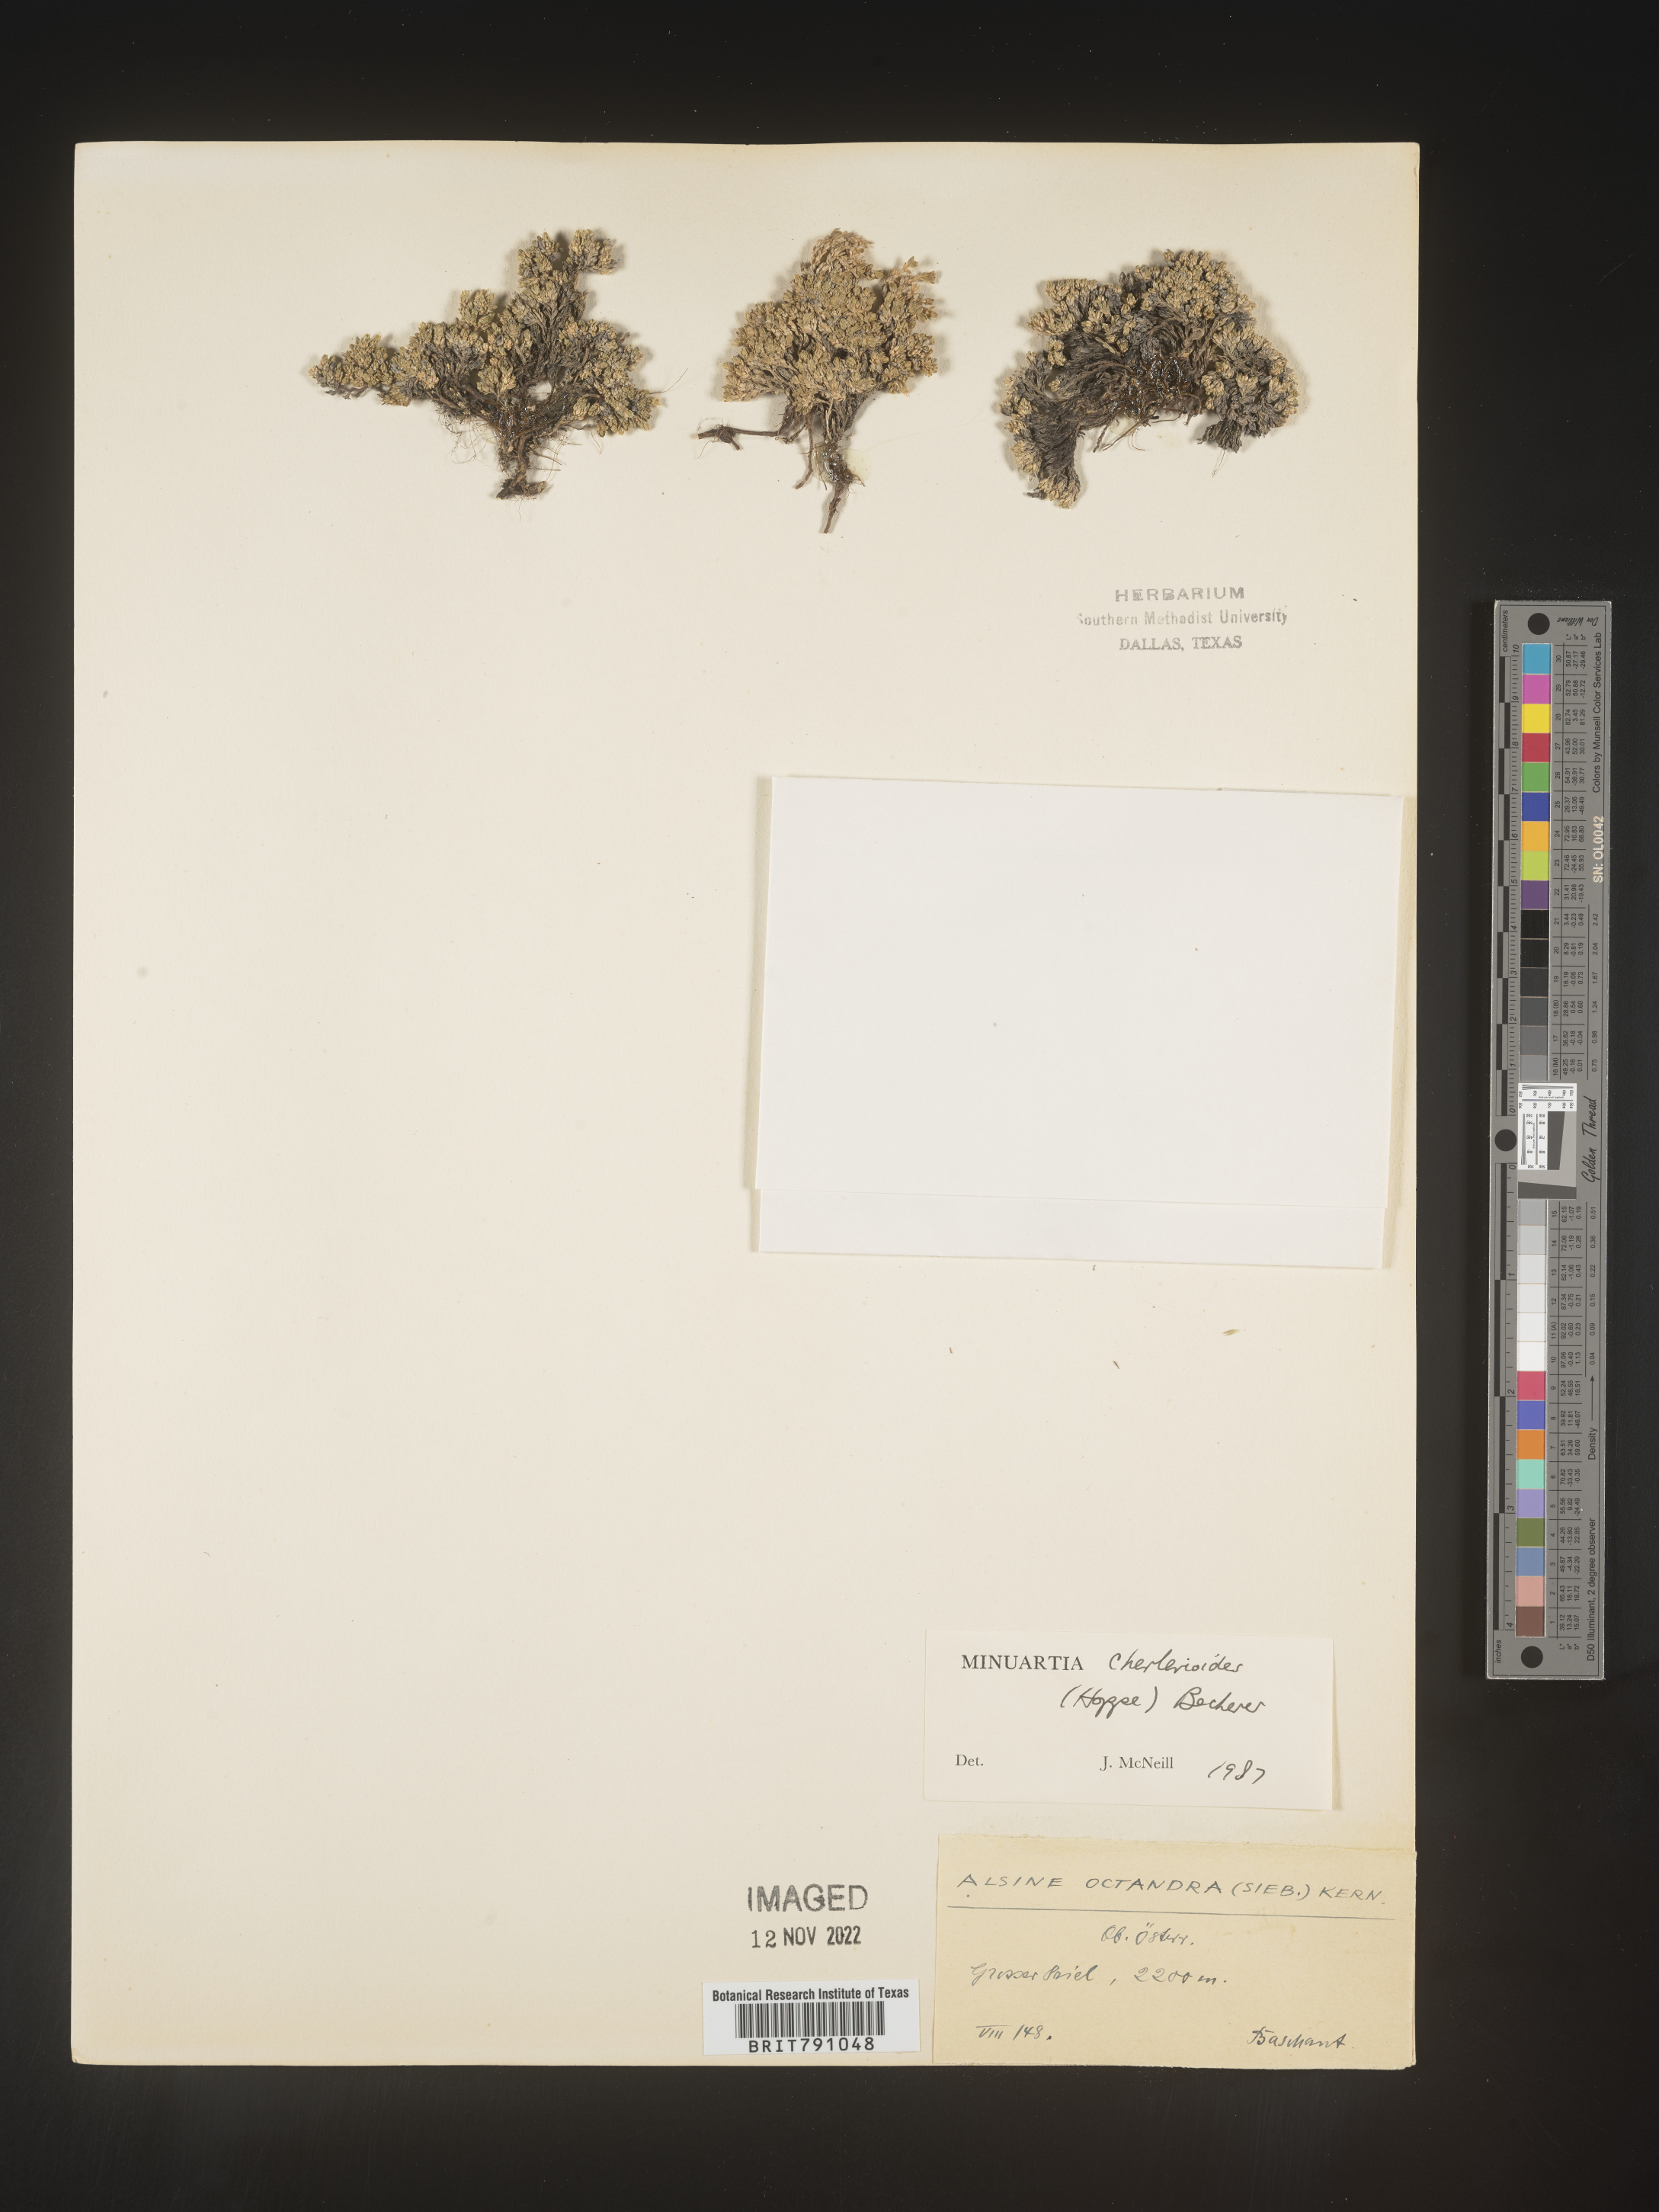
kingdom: Plantae
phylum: Tracheophyta
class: Magnoliopsida
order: Caryophyllales
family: Caryophyllaceae
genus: Minuartia
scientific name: Minuartia
